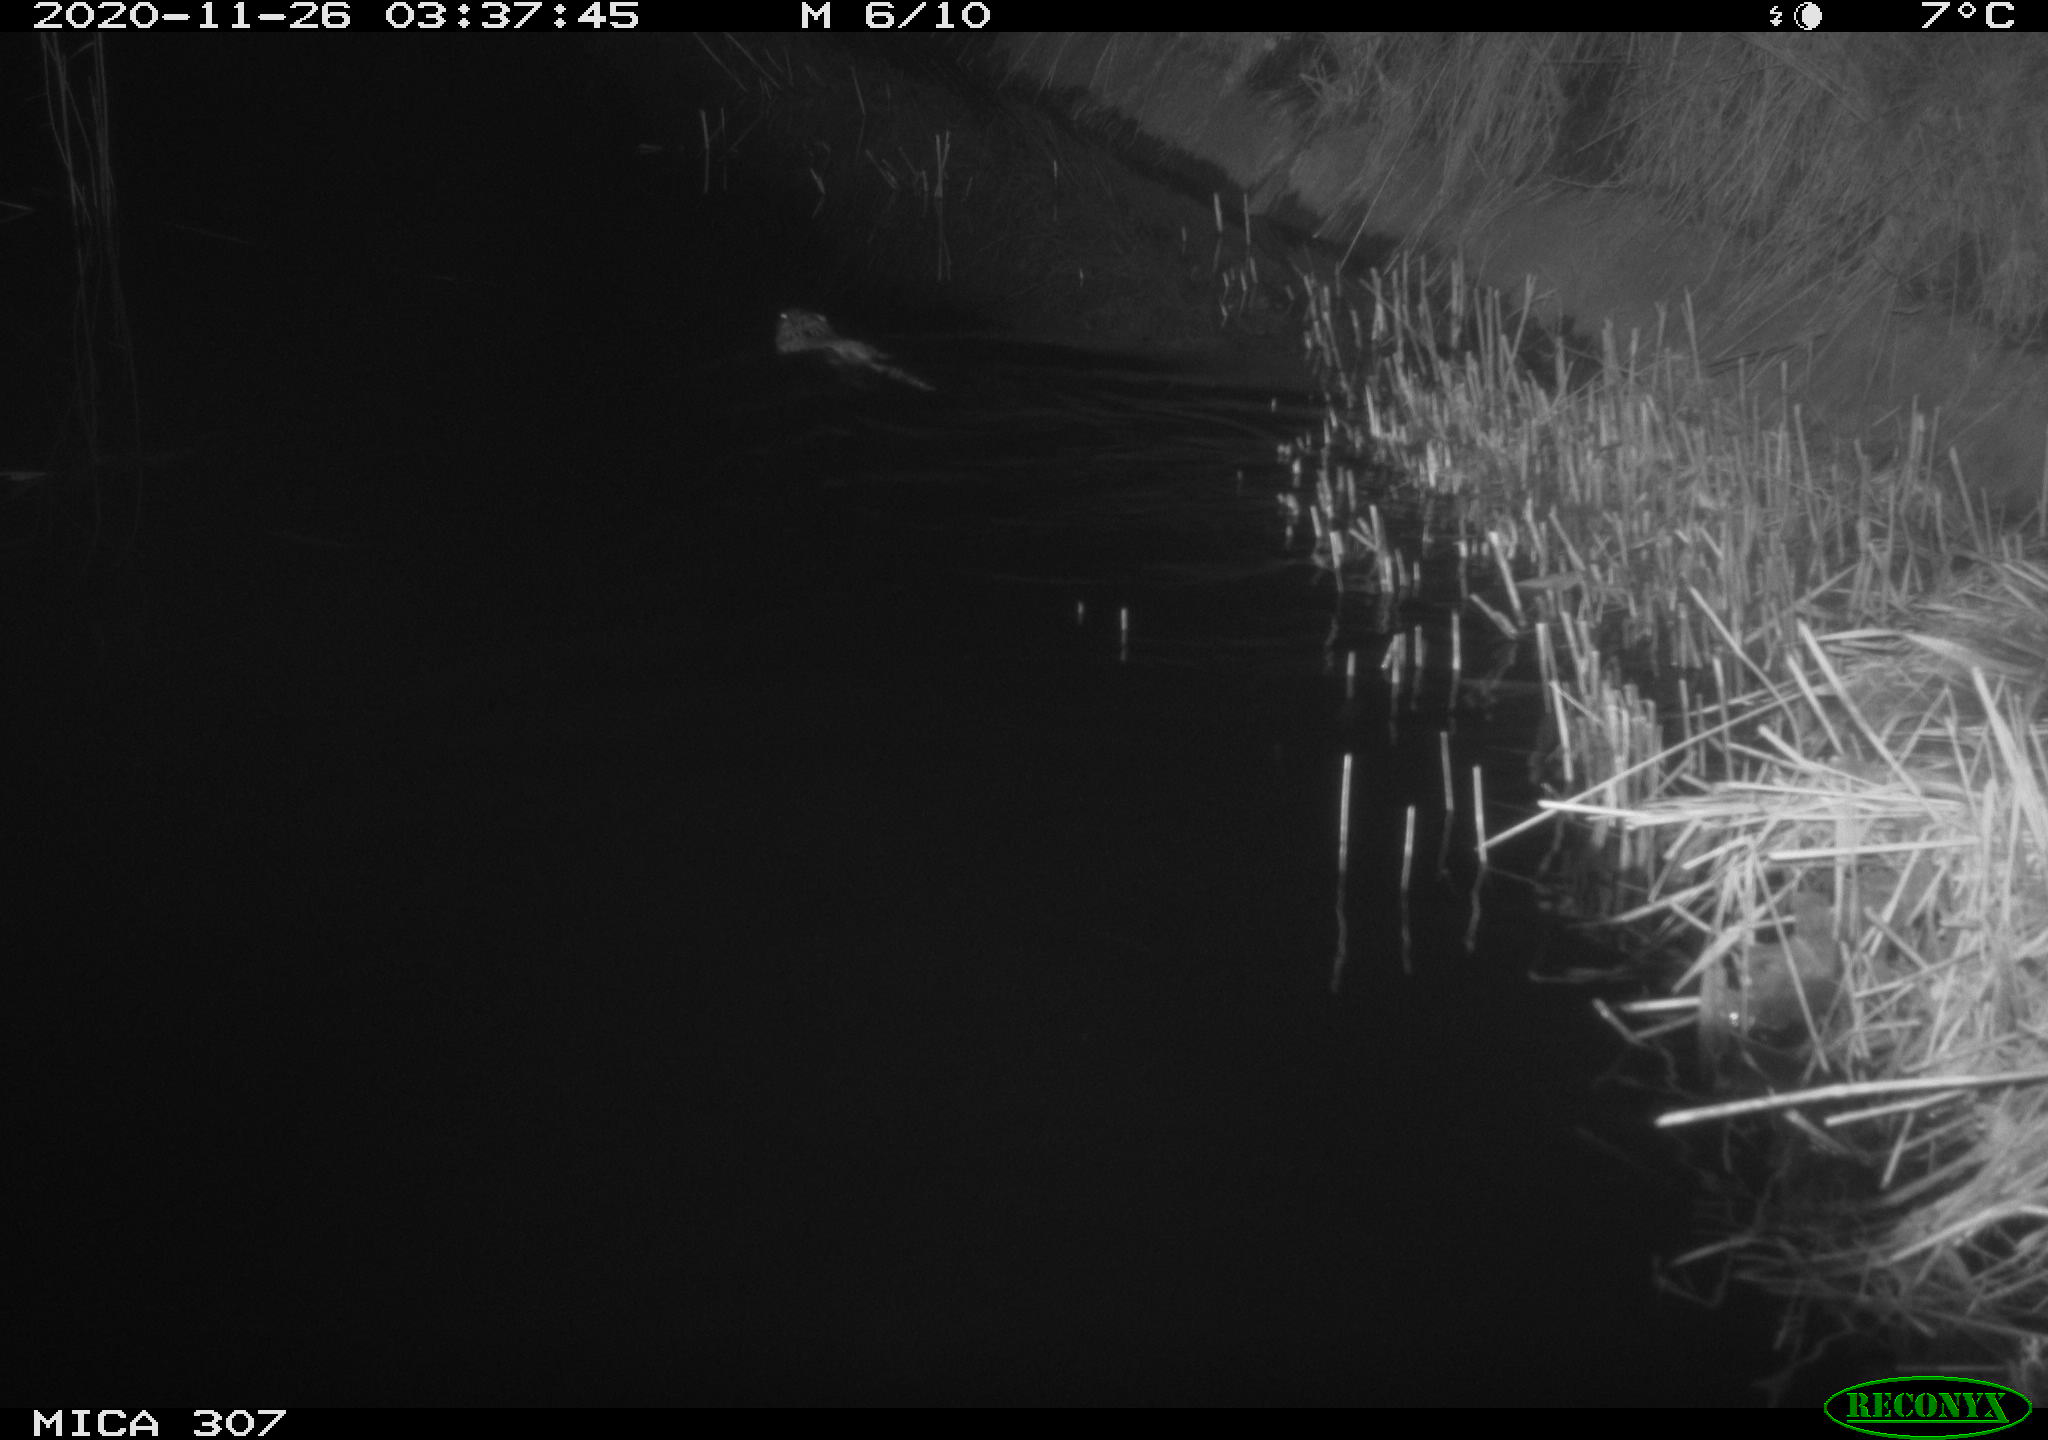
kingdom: Animalia
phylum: Chordata
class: Mammalia
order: Rodentia
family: Cricetidae
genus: Ondatra
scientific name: Ondatra zibethicus
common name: Muskrat
